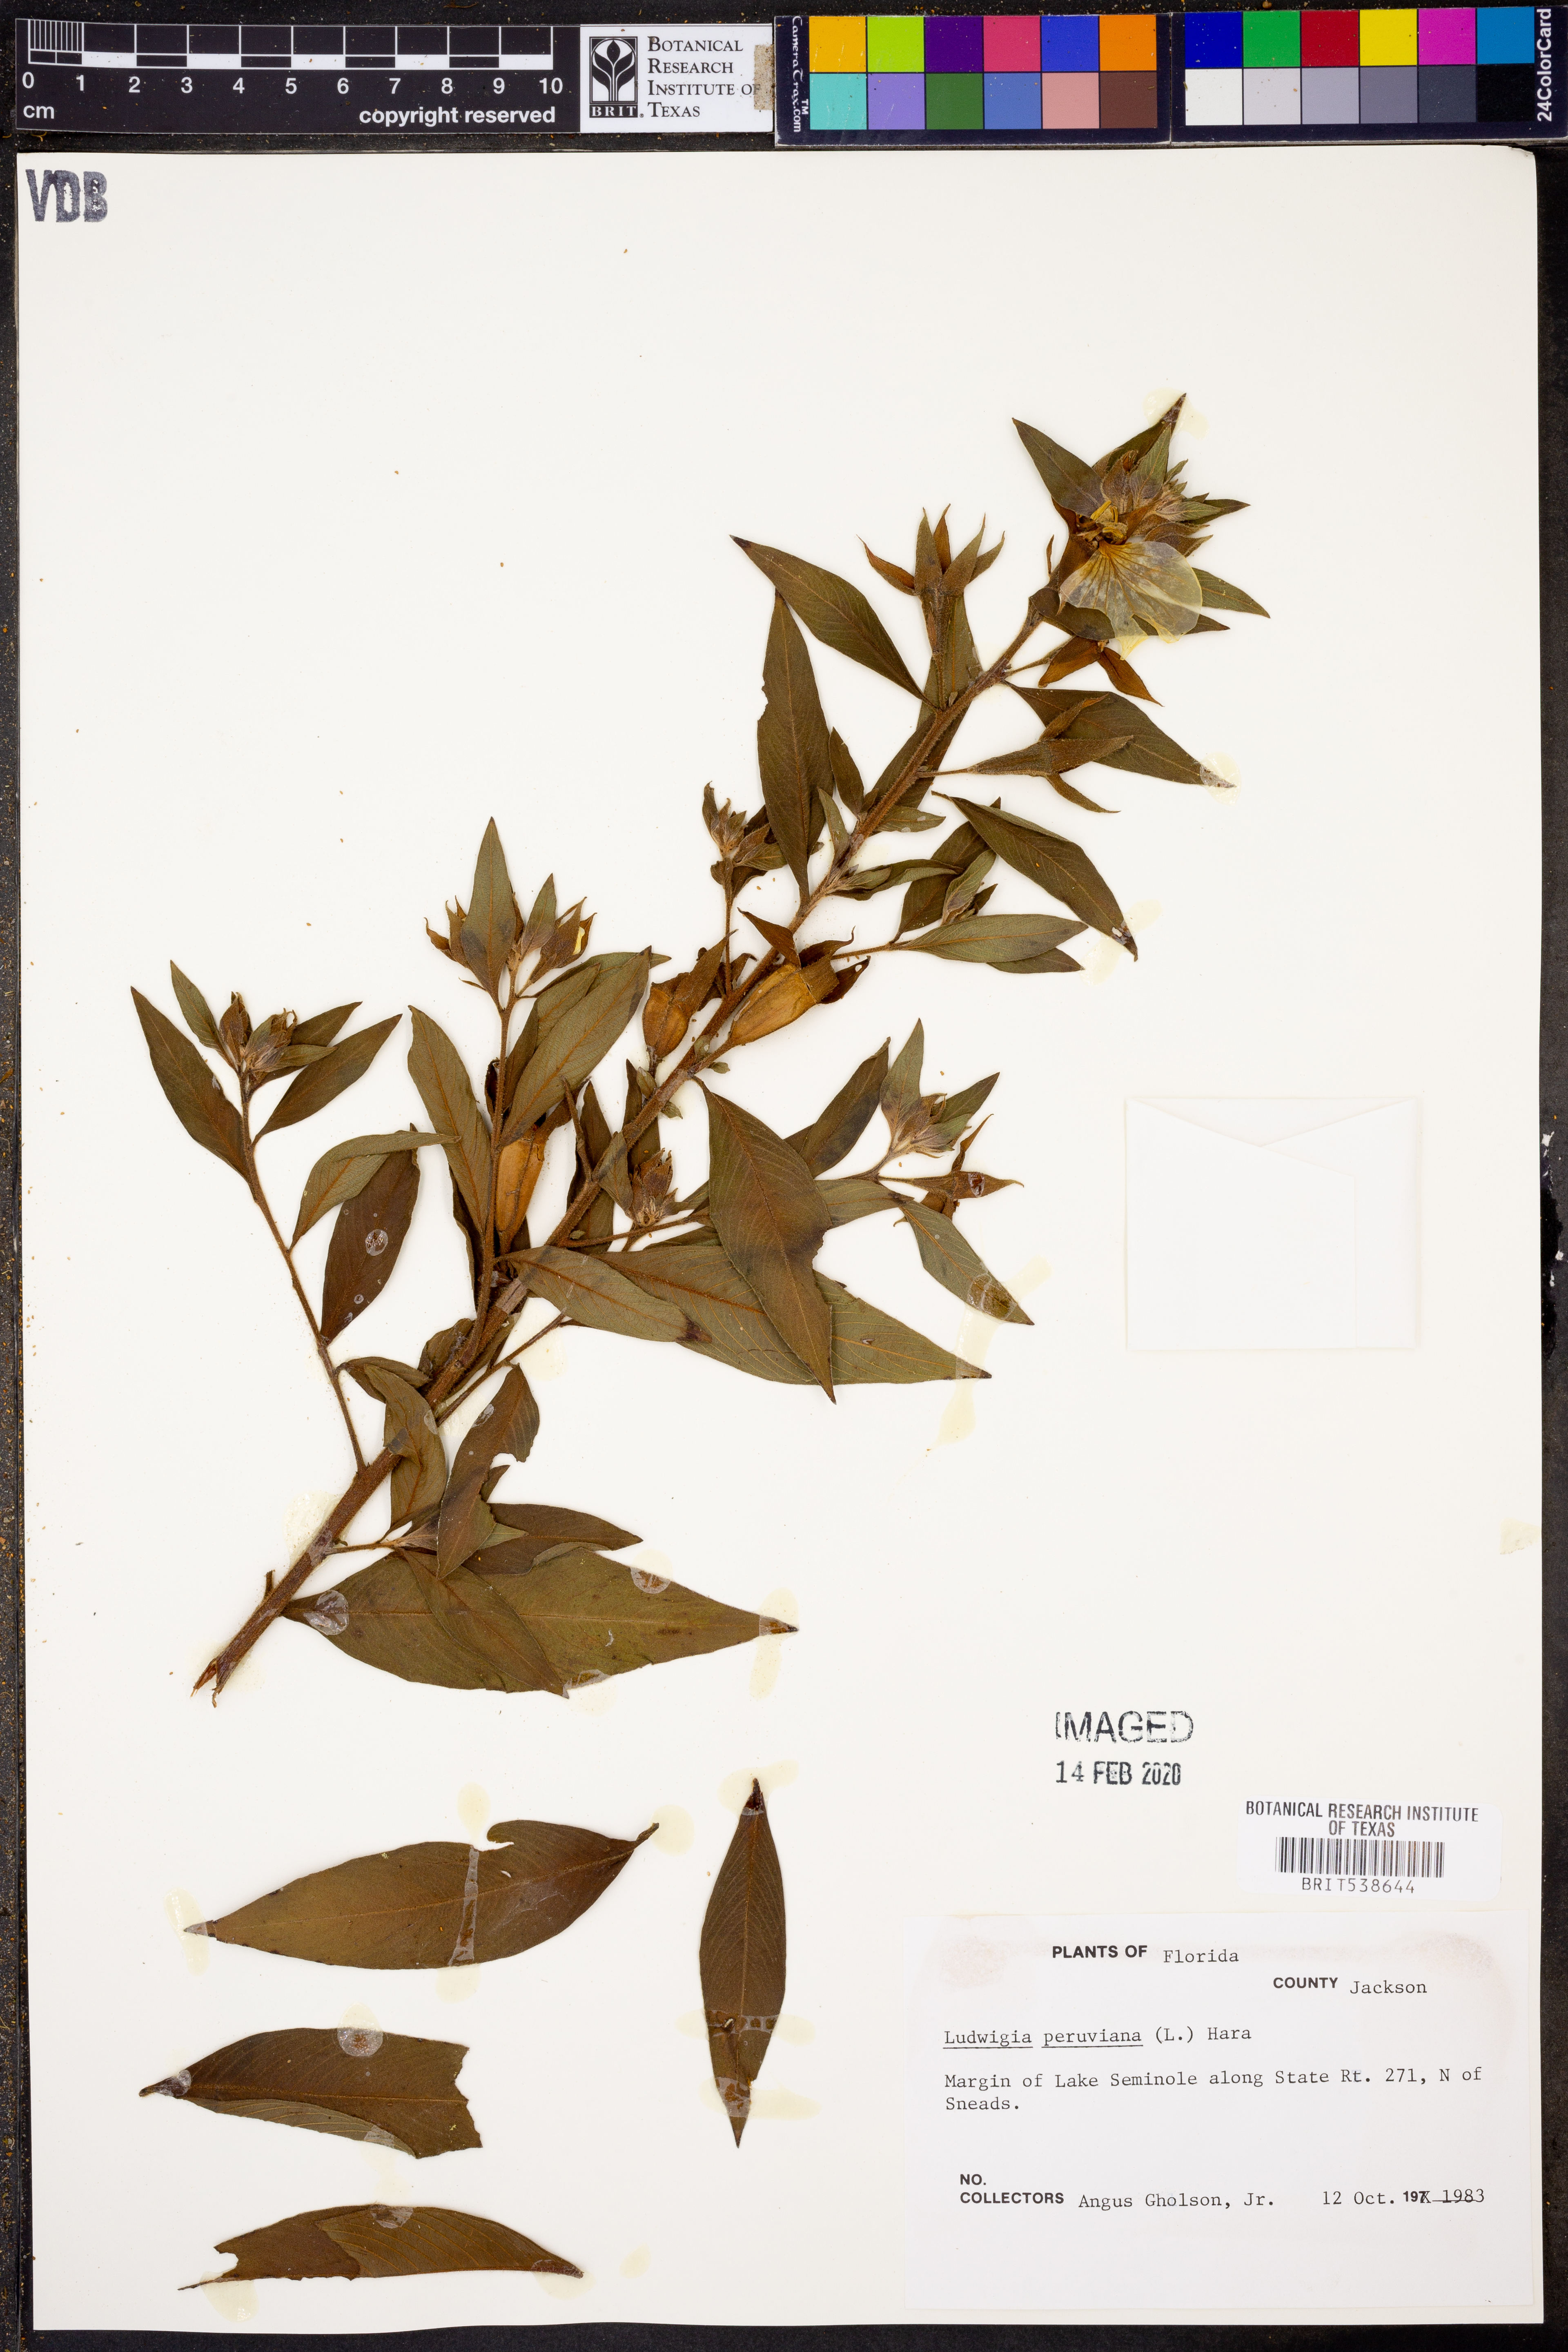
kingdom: Plantae
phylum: Tracheophyta
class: Magnoliopsida
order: Myrtales
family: Onagraceae
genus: Ludwigia
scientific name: Ludwigia peruviana
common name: Peruvian primrose-willow
